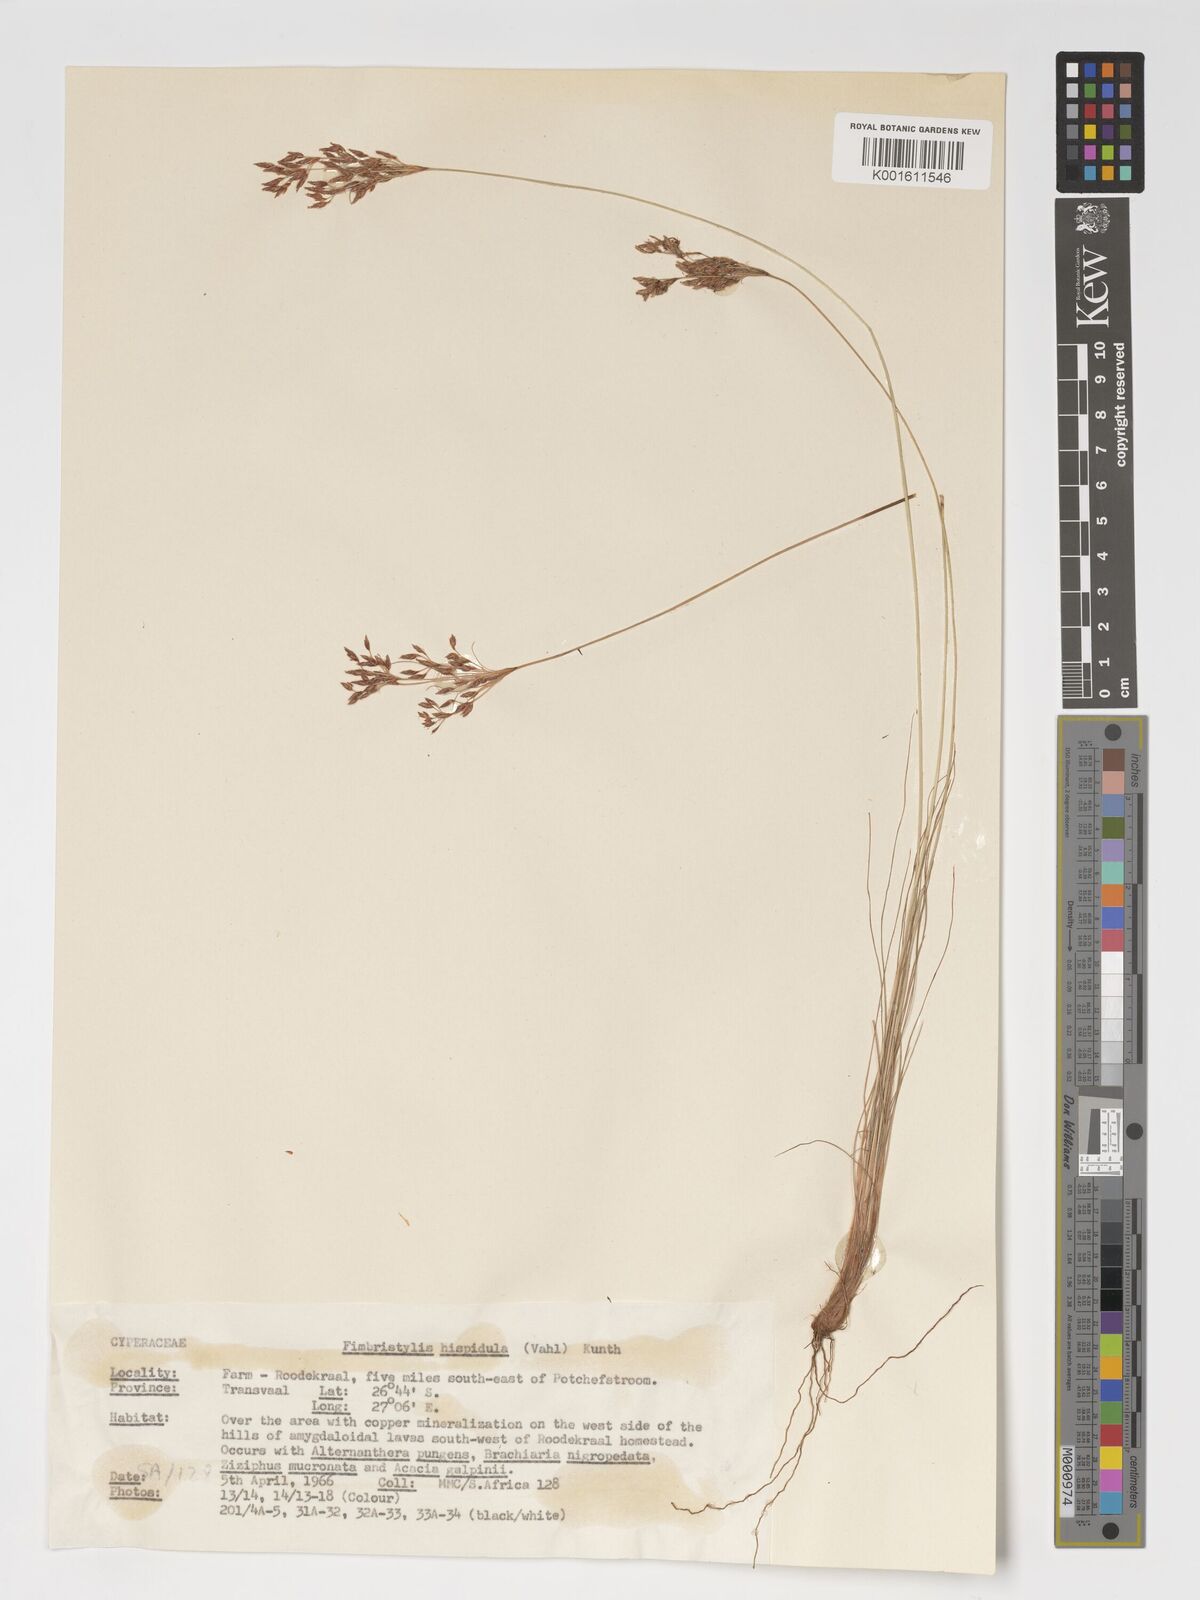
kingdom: Plantae
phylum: Tracheophyta
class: Liliopsida
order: Poales
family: Cyperaceae
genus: Bulbostylis
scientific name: Bulbostylis hispidula
